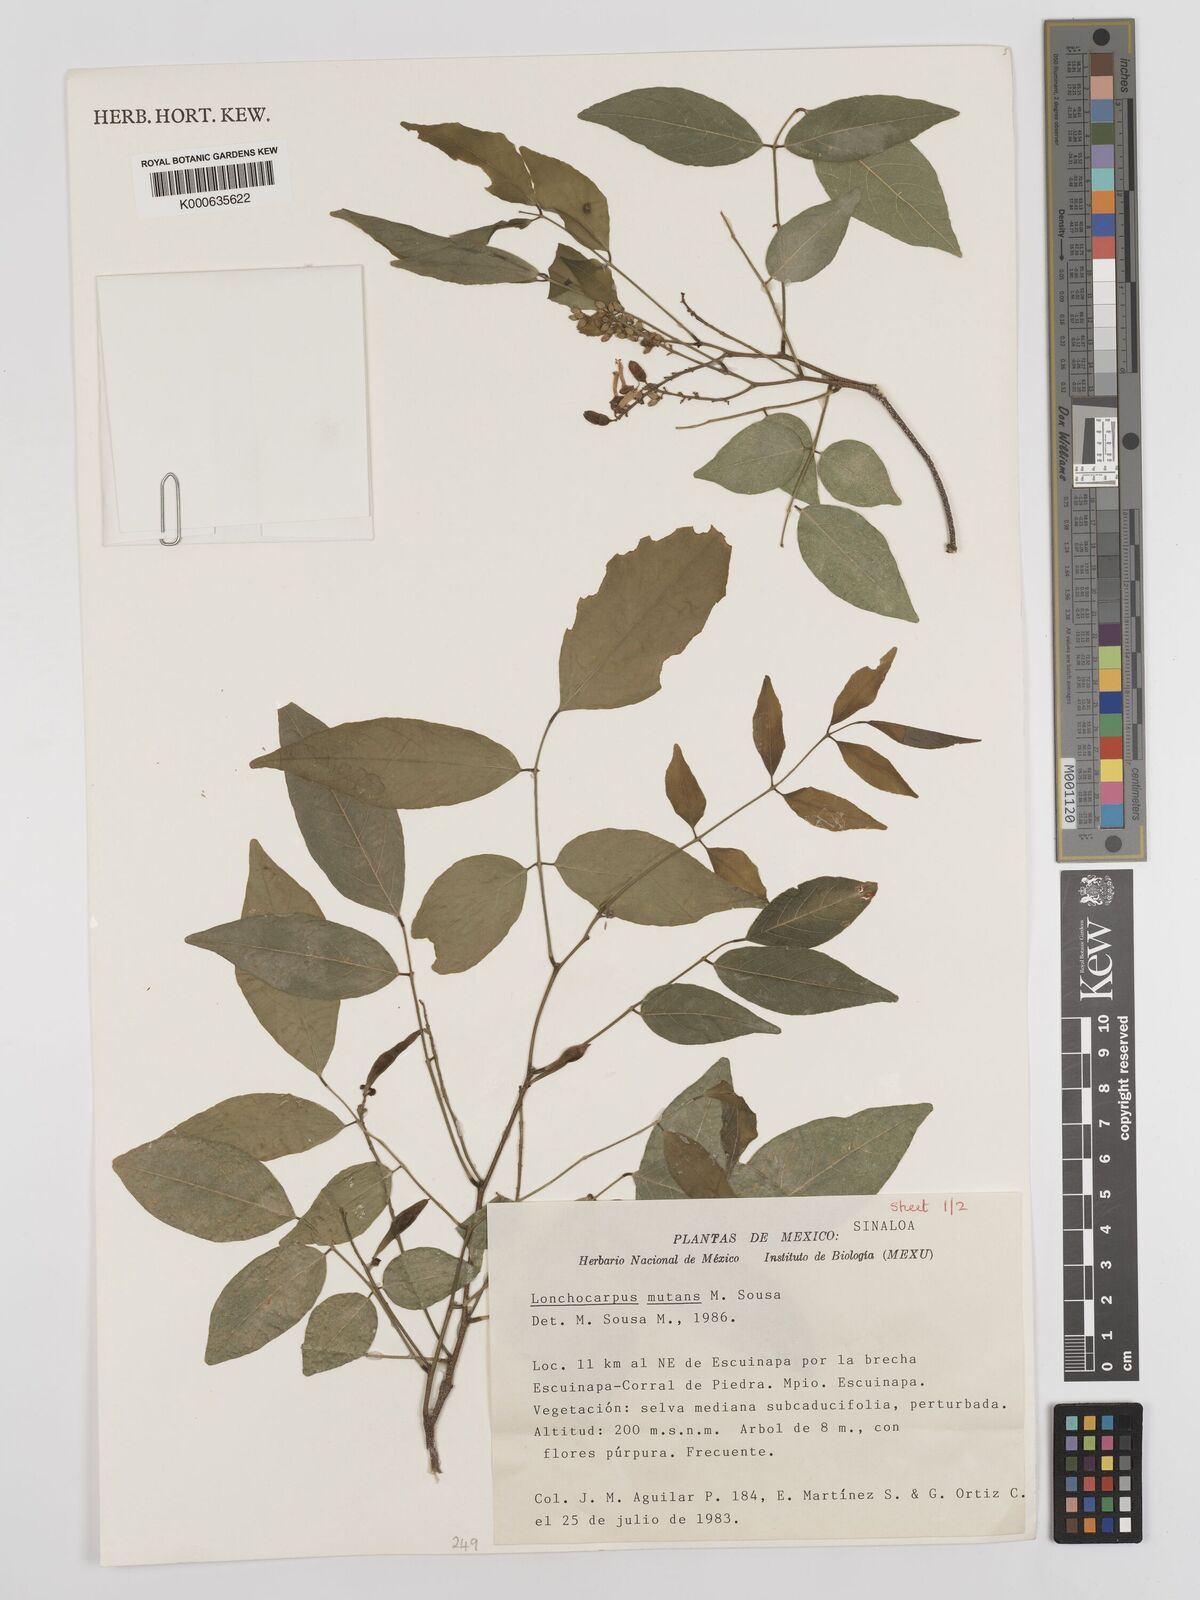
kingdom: Plantae
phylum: Tracheophyta
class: Magnoliopsida
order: Fabales
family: Fabaceae
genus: Lonchocarpus
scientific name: Lonchocarpus mutans
